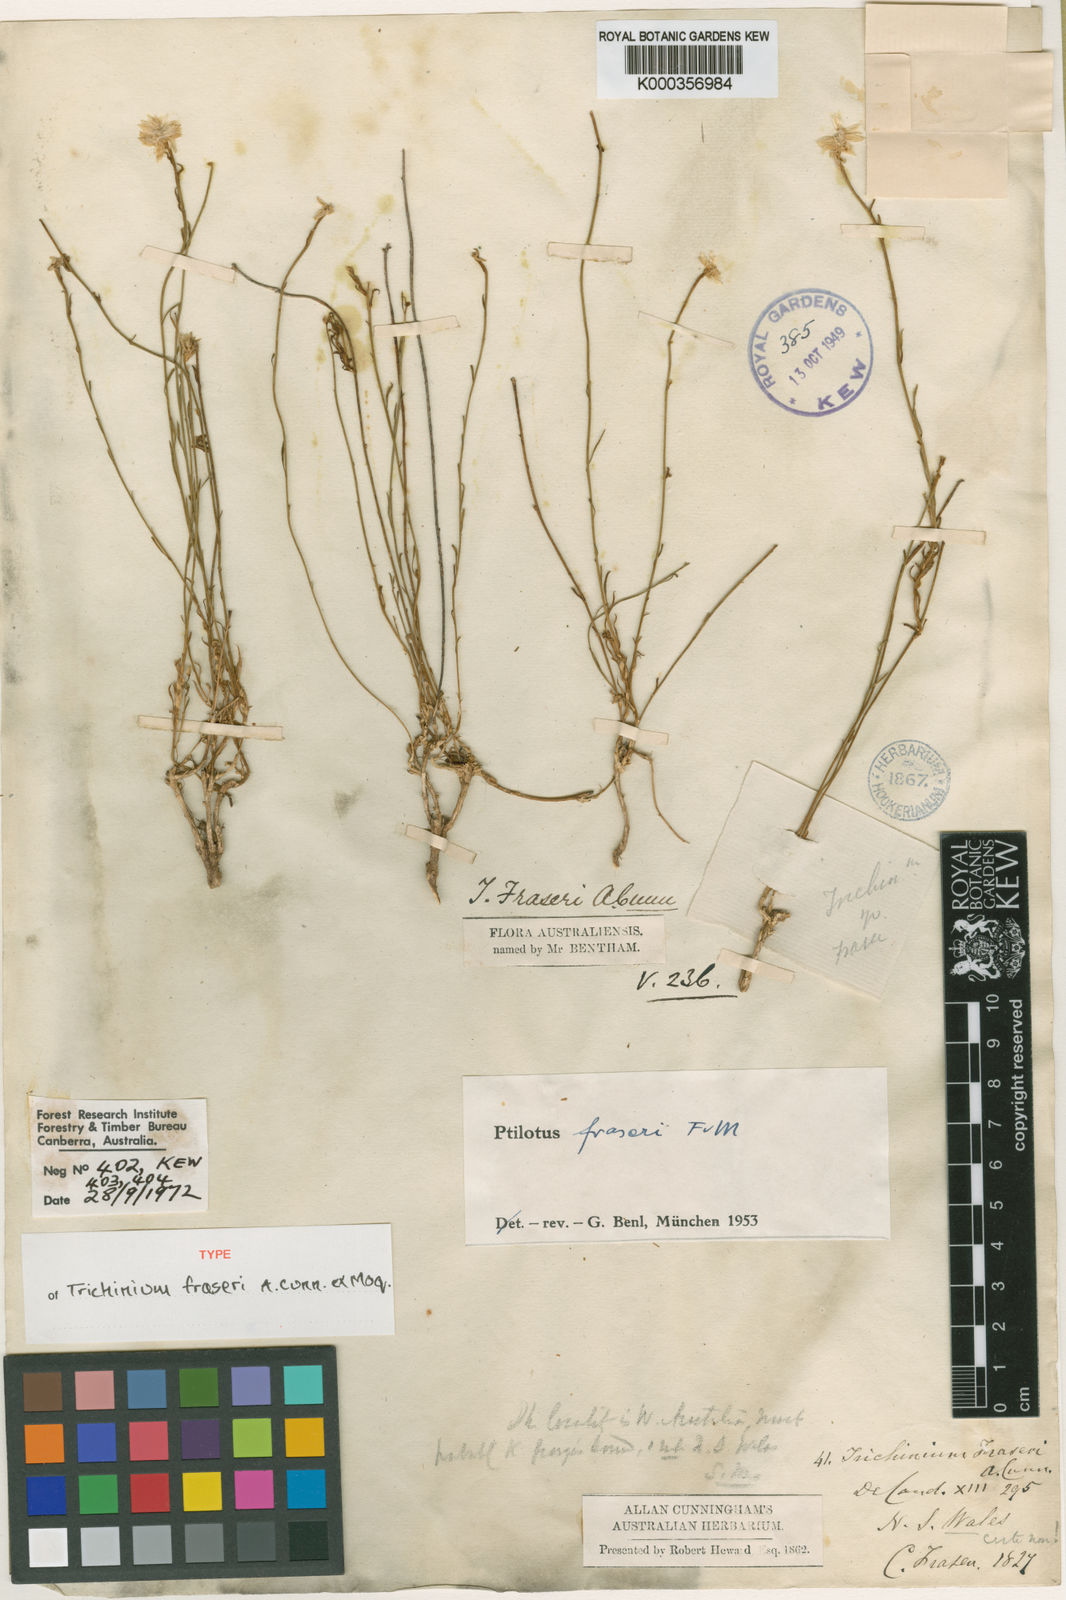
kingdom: Plantae
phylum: Tracheophyta
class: Magnoliopsida
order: Caryophyllales
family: Amaranthaceae
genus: Ptilotus
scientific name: Ptilotus drummondii
